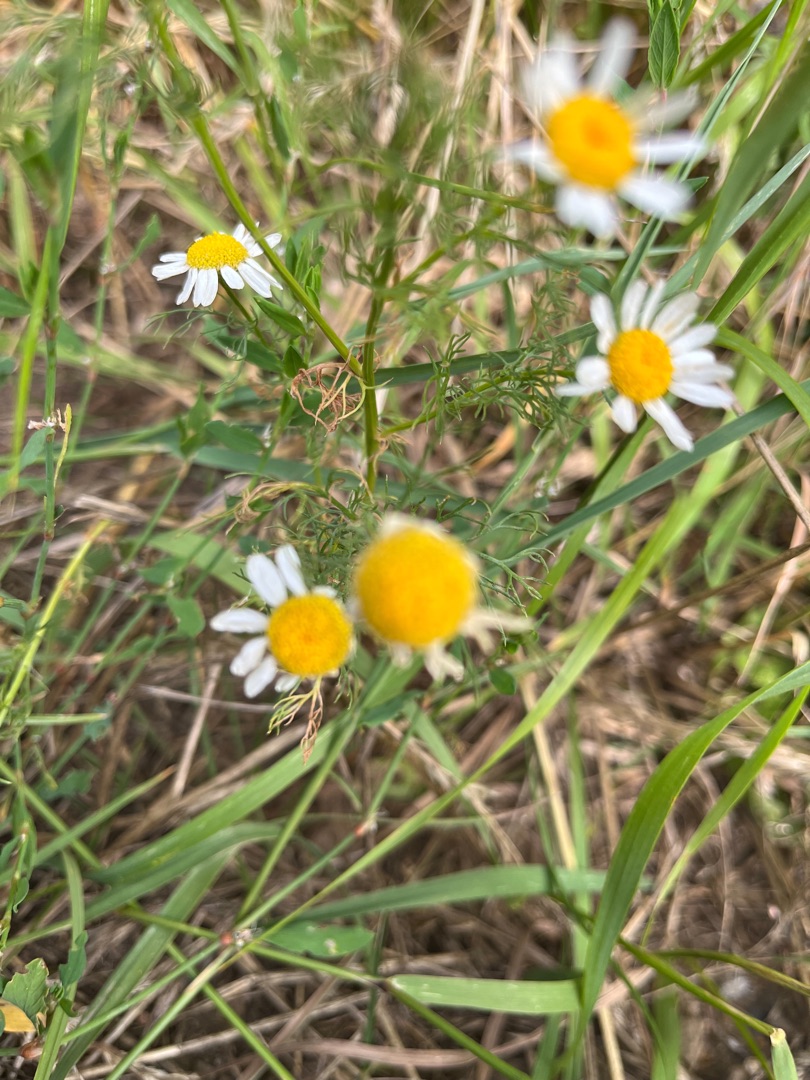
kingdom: Plantae
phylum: Tracheophyta
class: Magnoliopsida
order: Asterales
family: Asteraceae
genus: Tripleurospermum
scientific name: Tripleurospermum inodorum
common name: Lugtløs kamille
